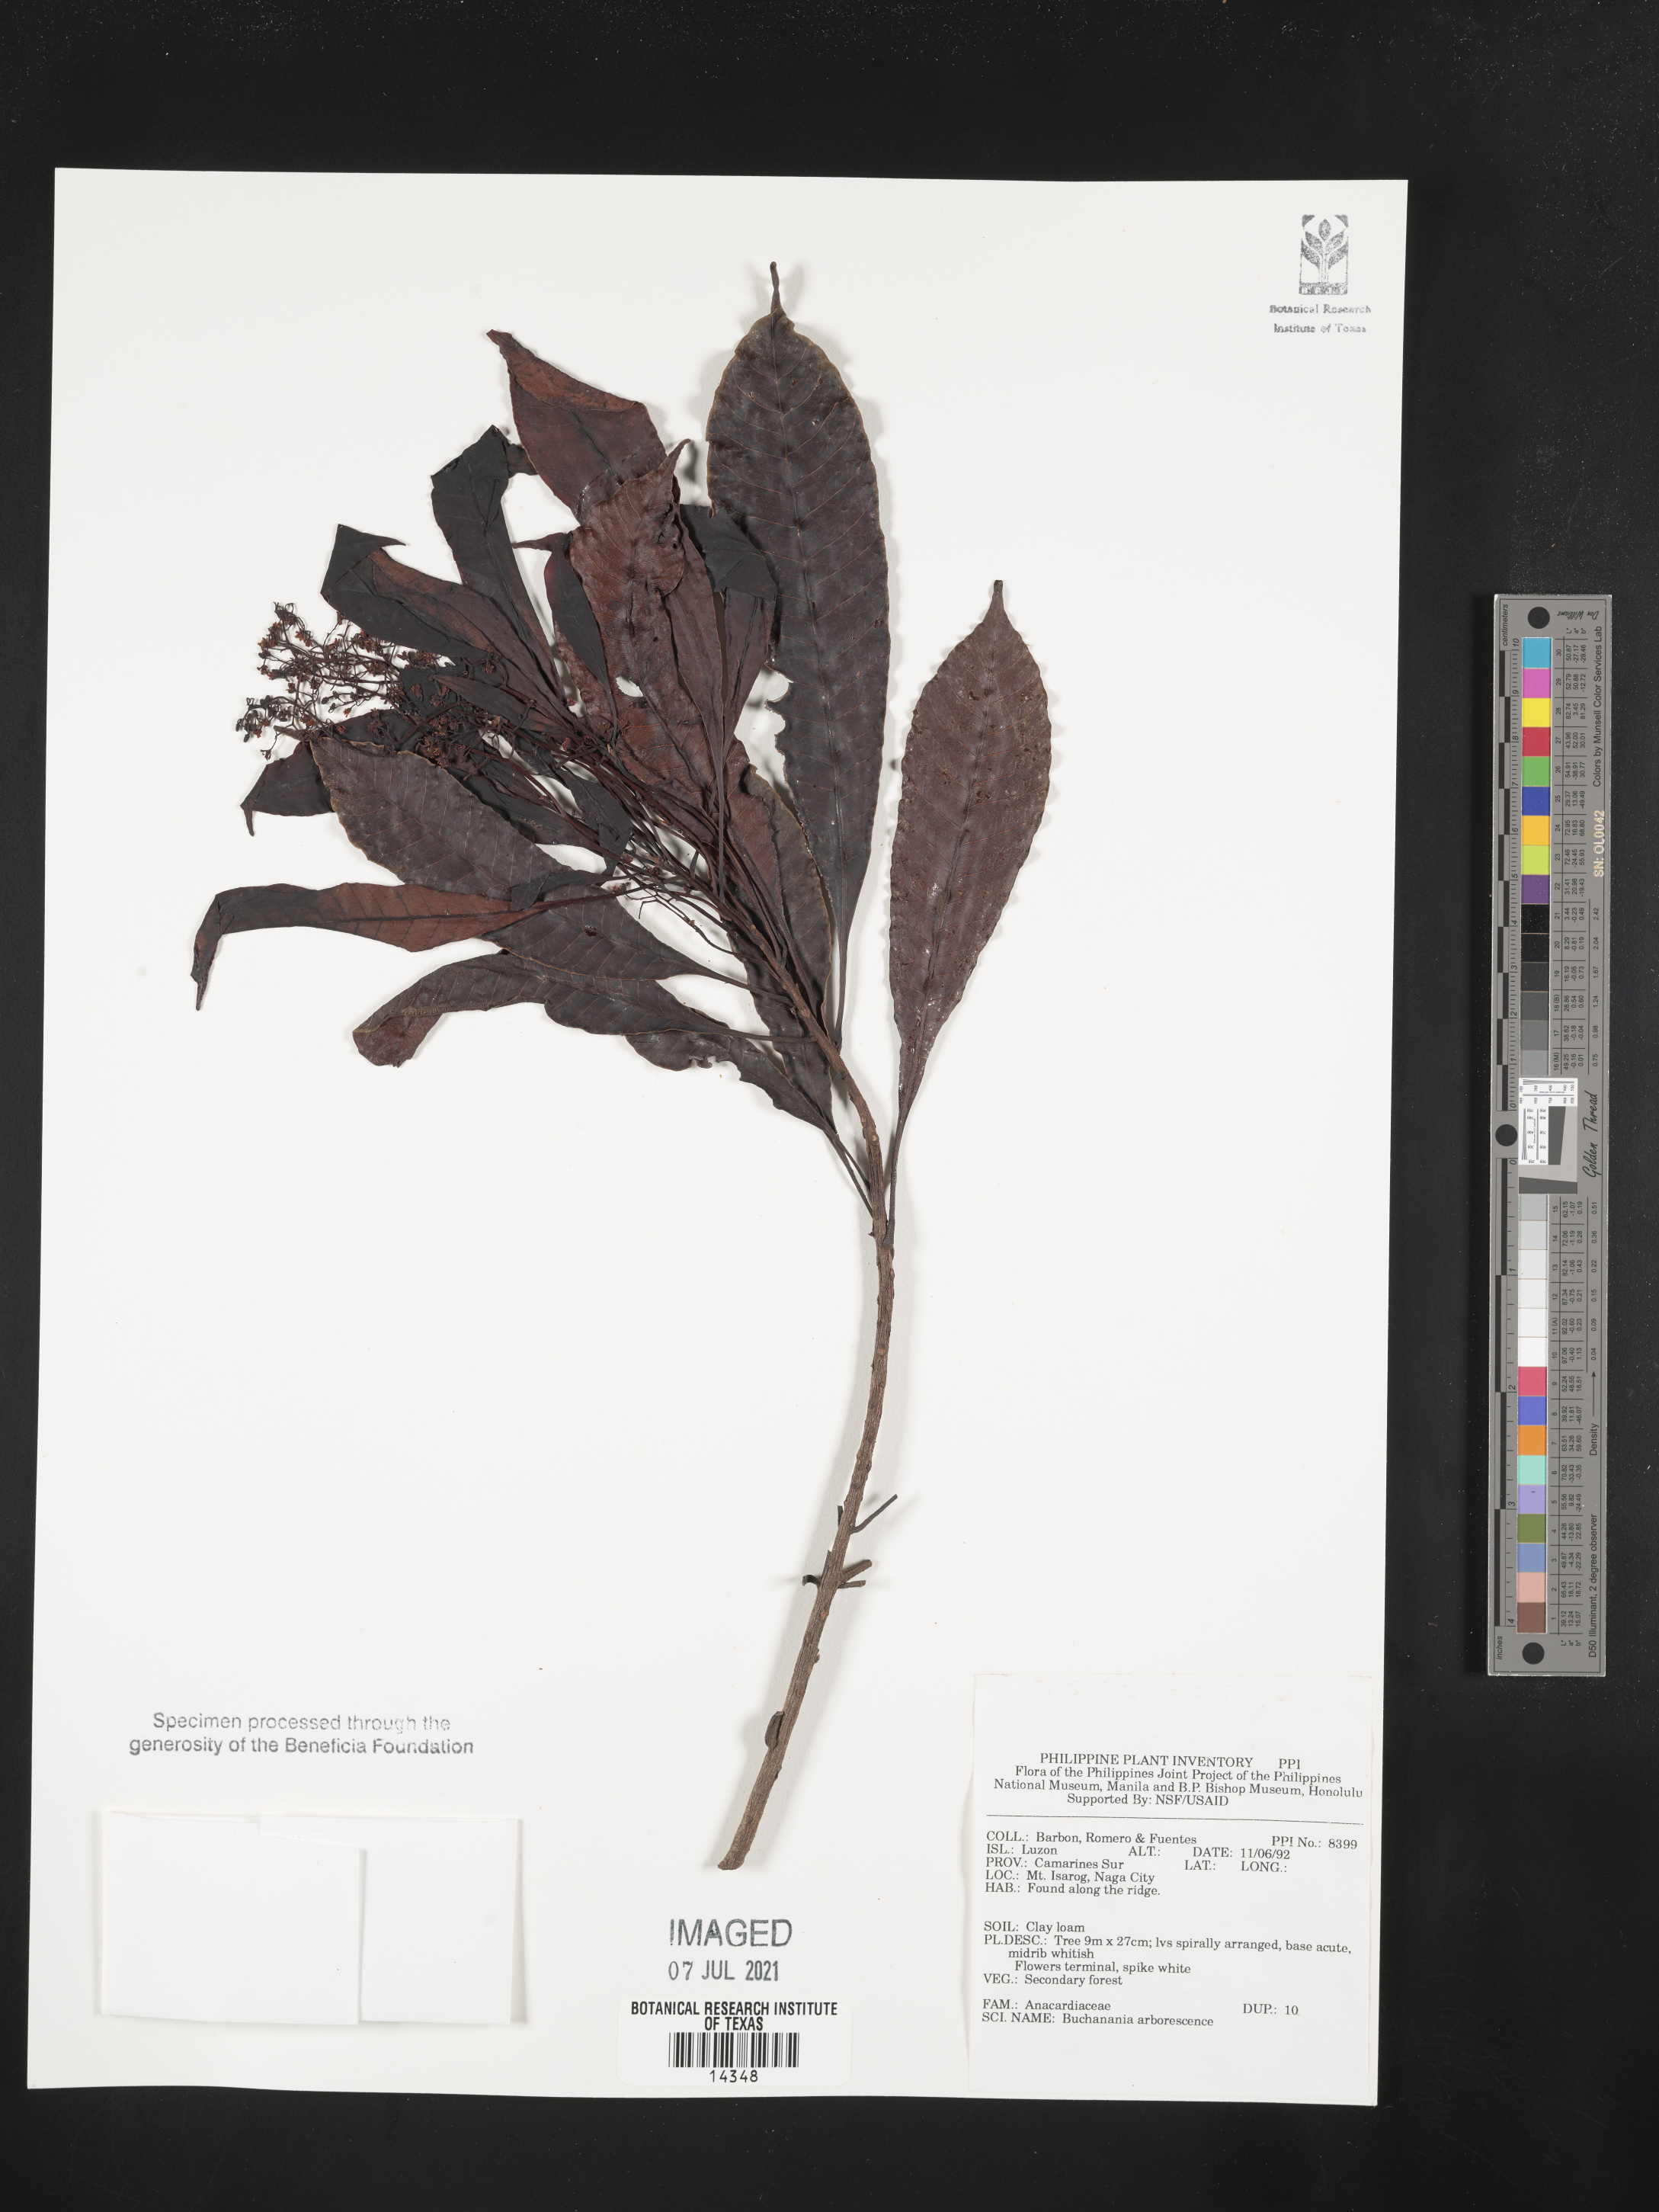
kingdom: Plantae
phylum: Tracheophyta
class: Magnoliopsida
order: Sapindales
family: Anacardiaceae
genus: Buchanania
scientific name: Buchanania arborescens
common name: Sparrow’s mango
